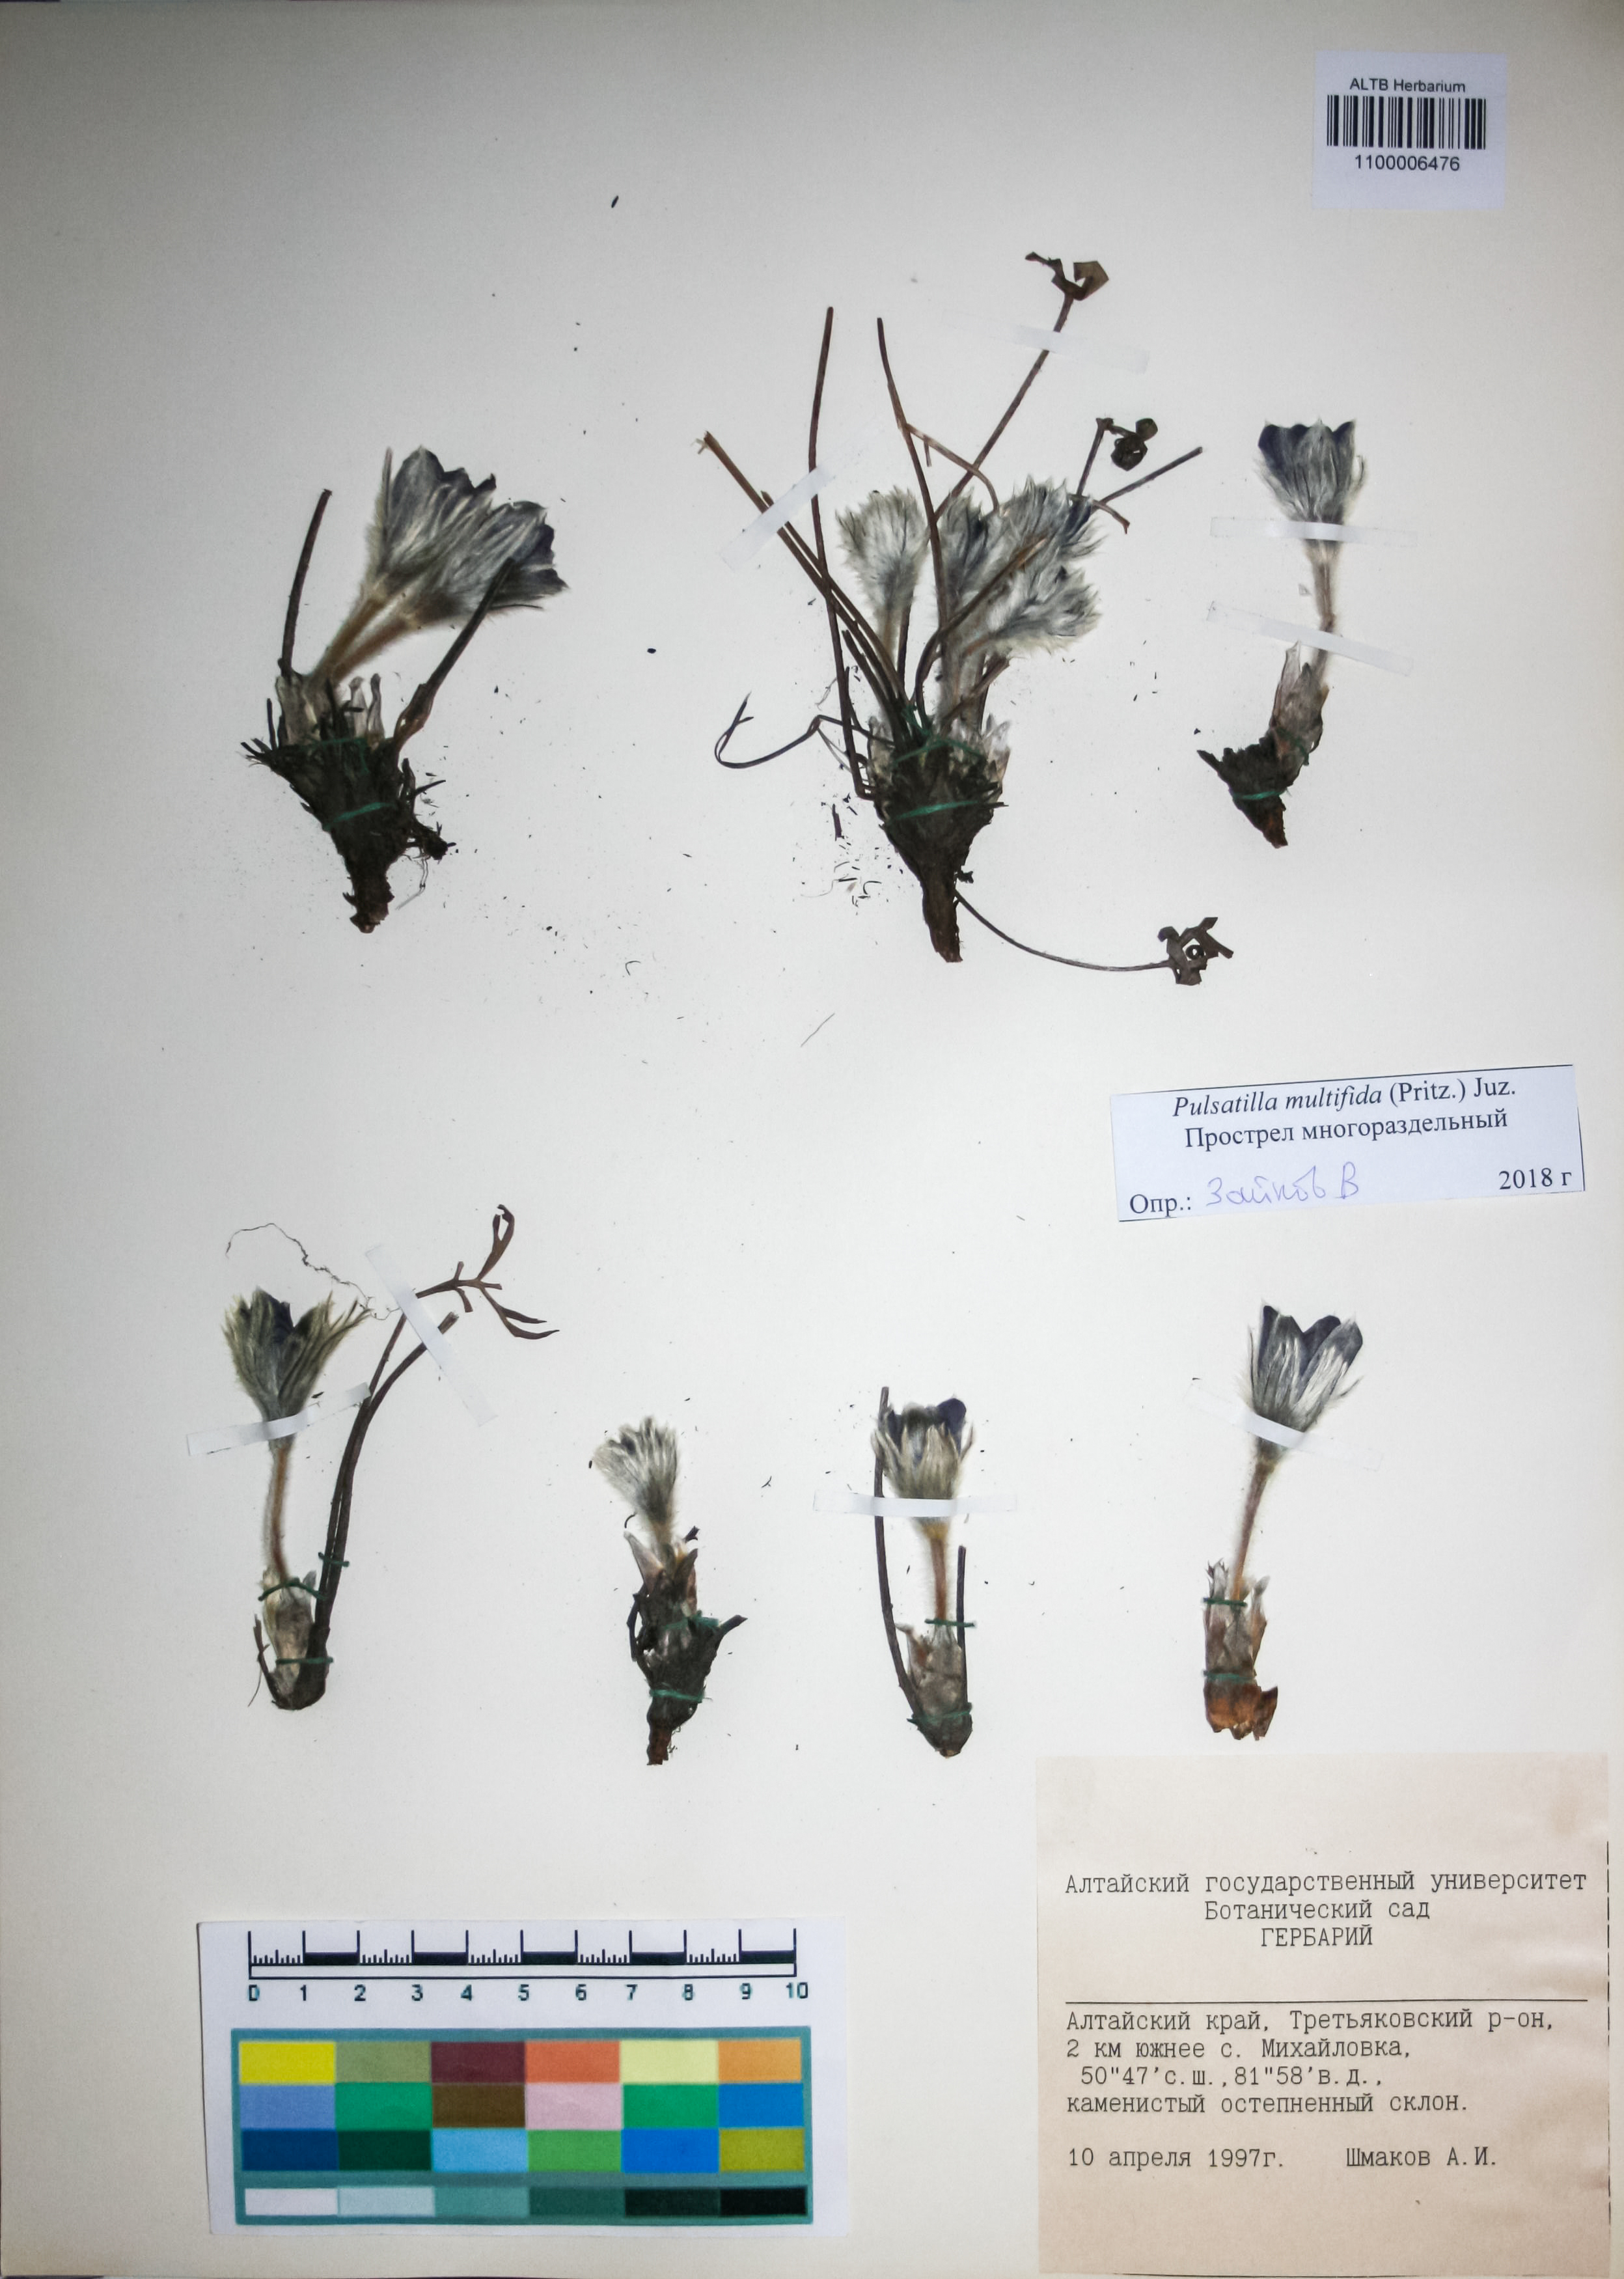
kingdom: Plantae
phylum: Tracheophyta
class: Magnoliopsida
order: Ranunculales
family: Ranunculaceae
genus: Pulsatilla
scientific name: Pulsatilla patens
